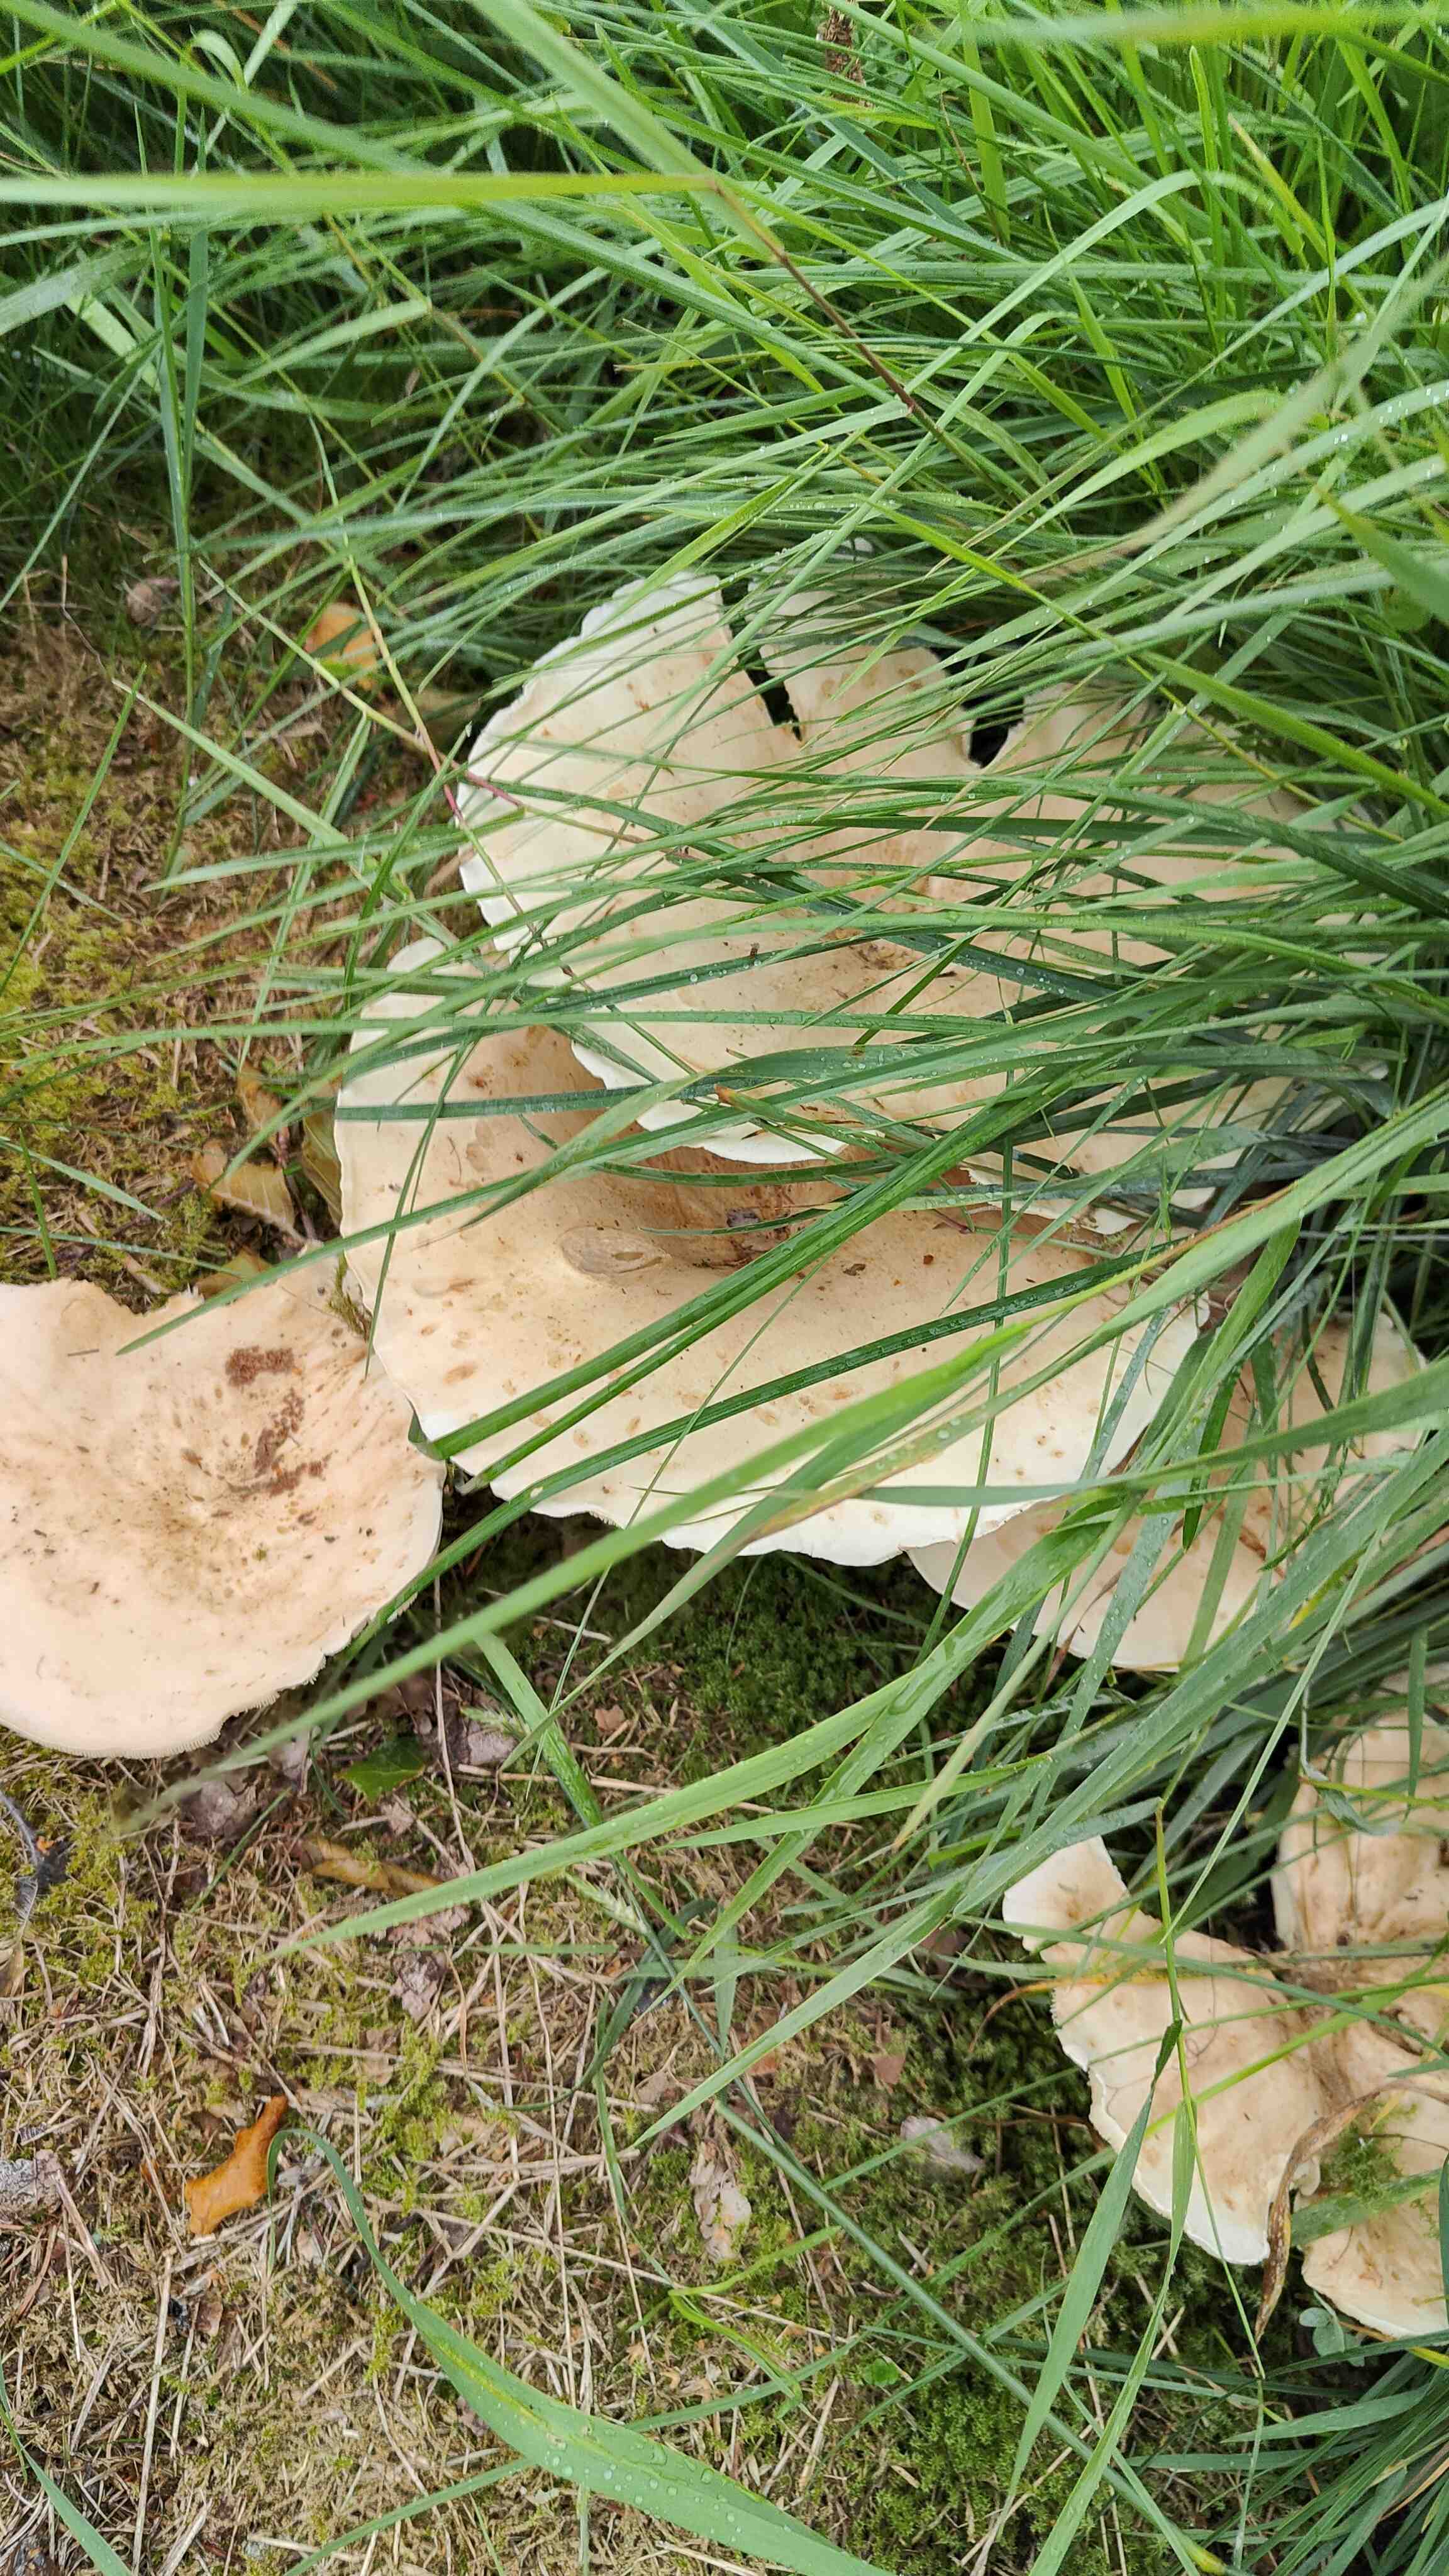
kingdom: Fungi
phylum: Basidiomycota
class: Agaricomycetes
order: Agaricales
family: Tricholomataceae
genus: Aspropaxillus
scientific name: Aspropaxillus giganteus
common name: kæmpe-tragtridderhat
